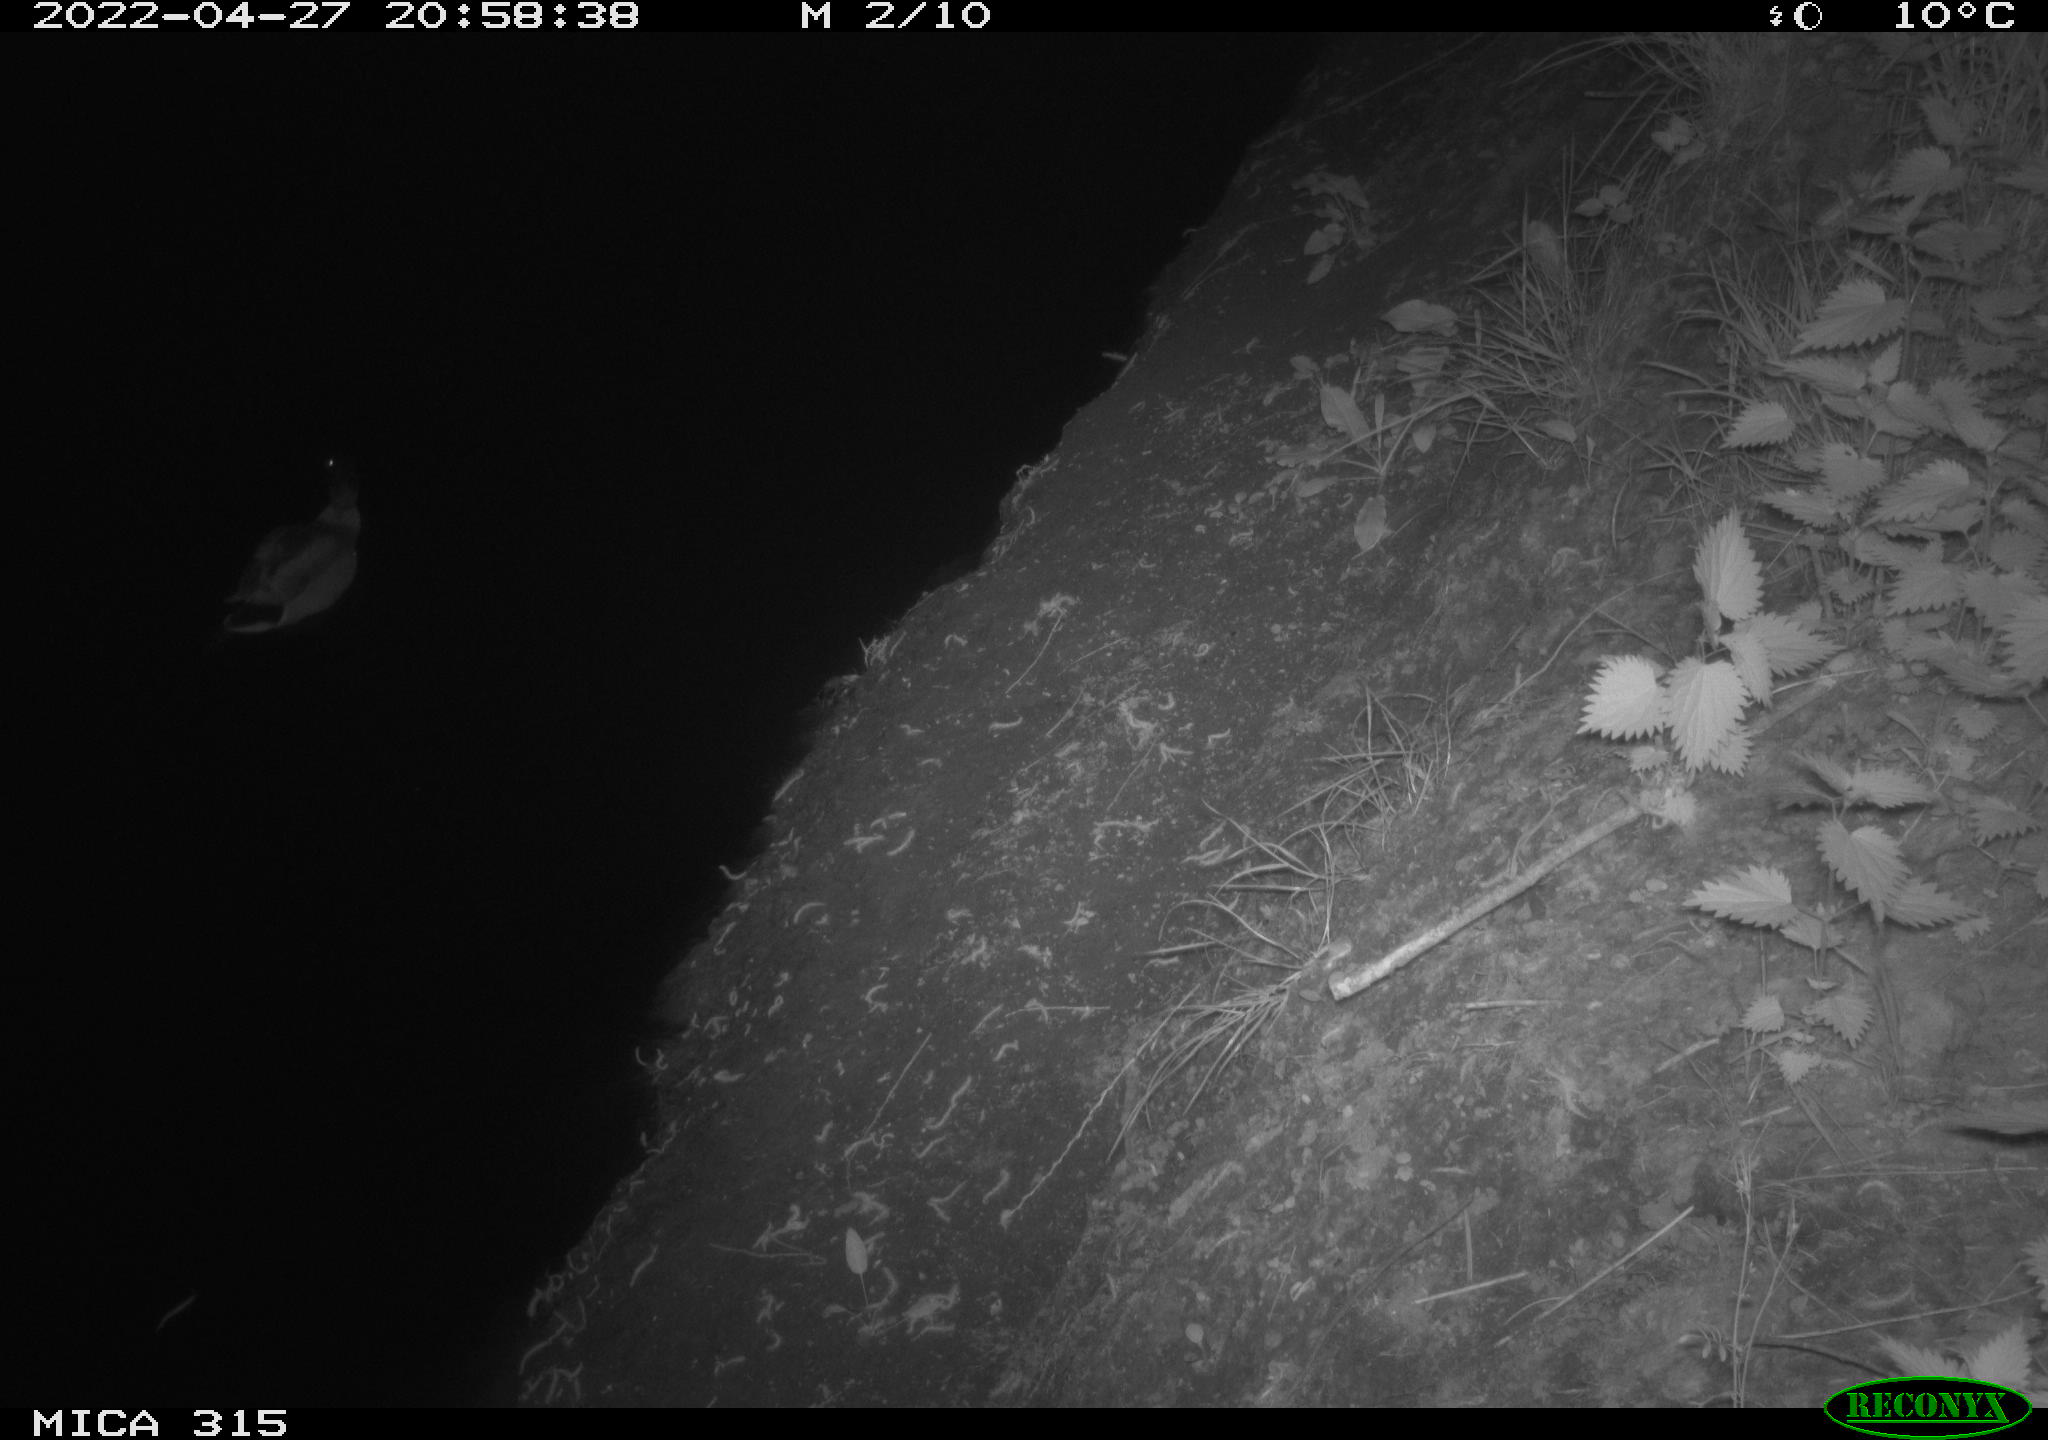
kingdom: Animalia
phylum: Chordata
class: Aves
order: Anseriformes
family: Anatidae
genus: Anas
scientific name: Anas platyrhynchos
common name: Mallard
